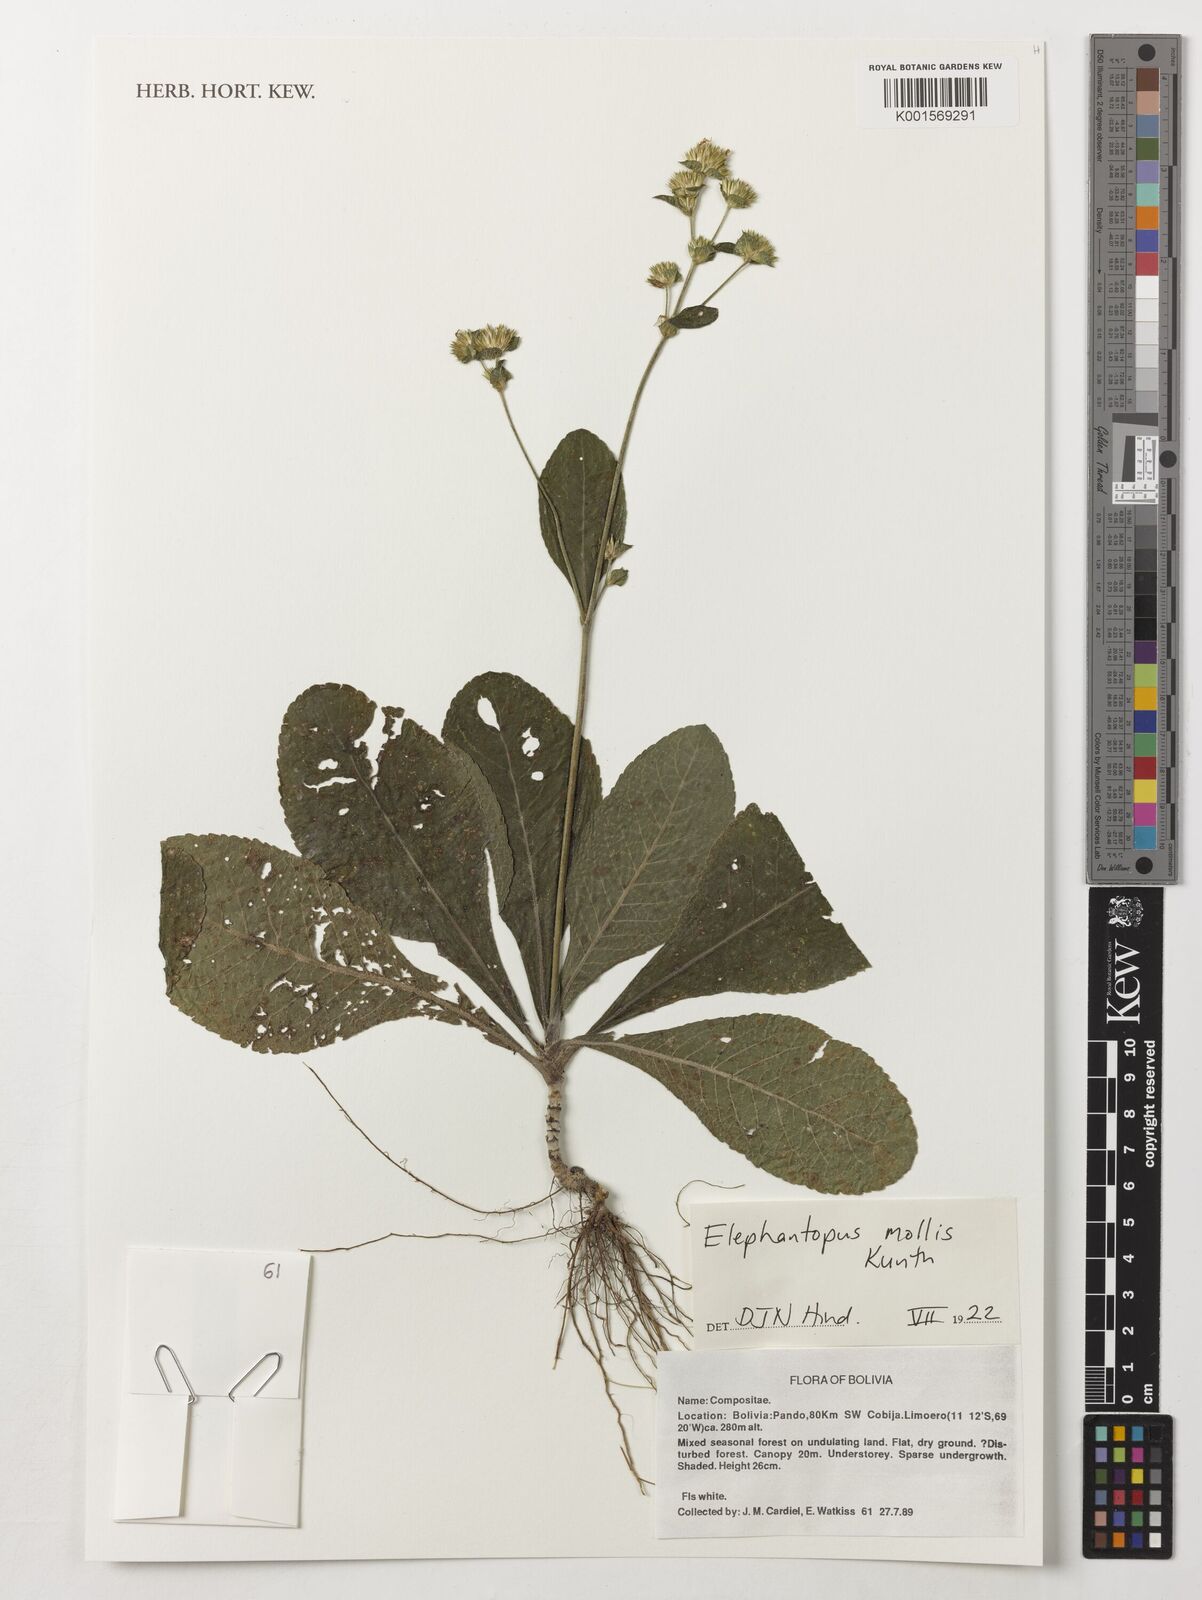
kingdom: Plantae
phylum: Tracheophyta
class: Magnoliopsida
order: Asterales
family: Asteraceae
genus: Elephantopus
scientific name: Elephantopus mollis
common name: Soft elephantsfoot
